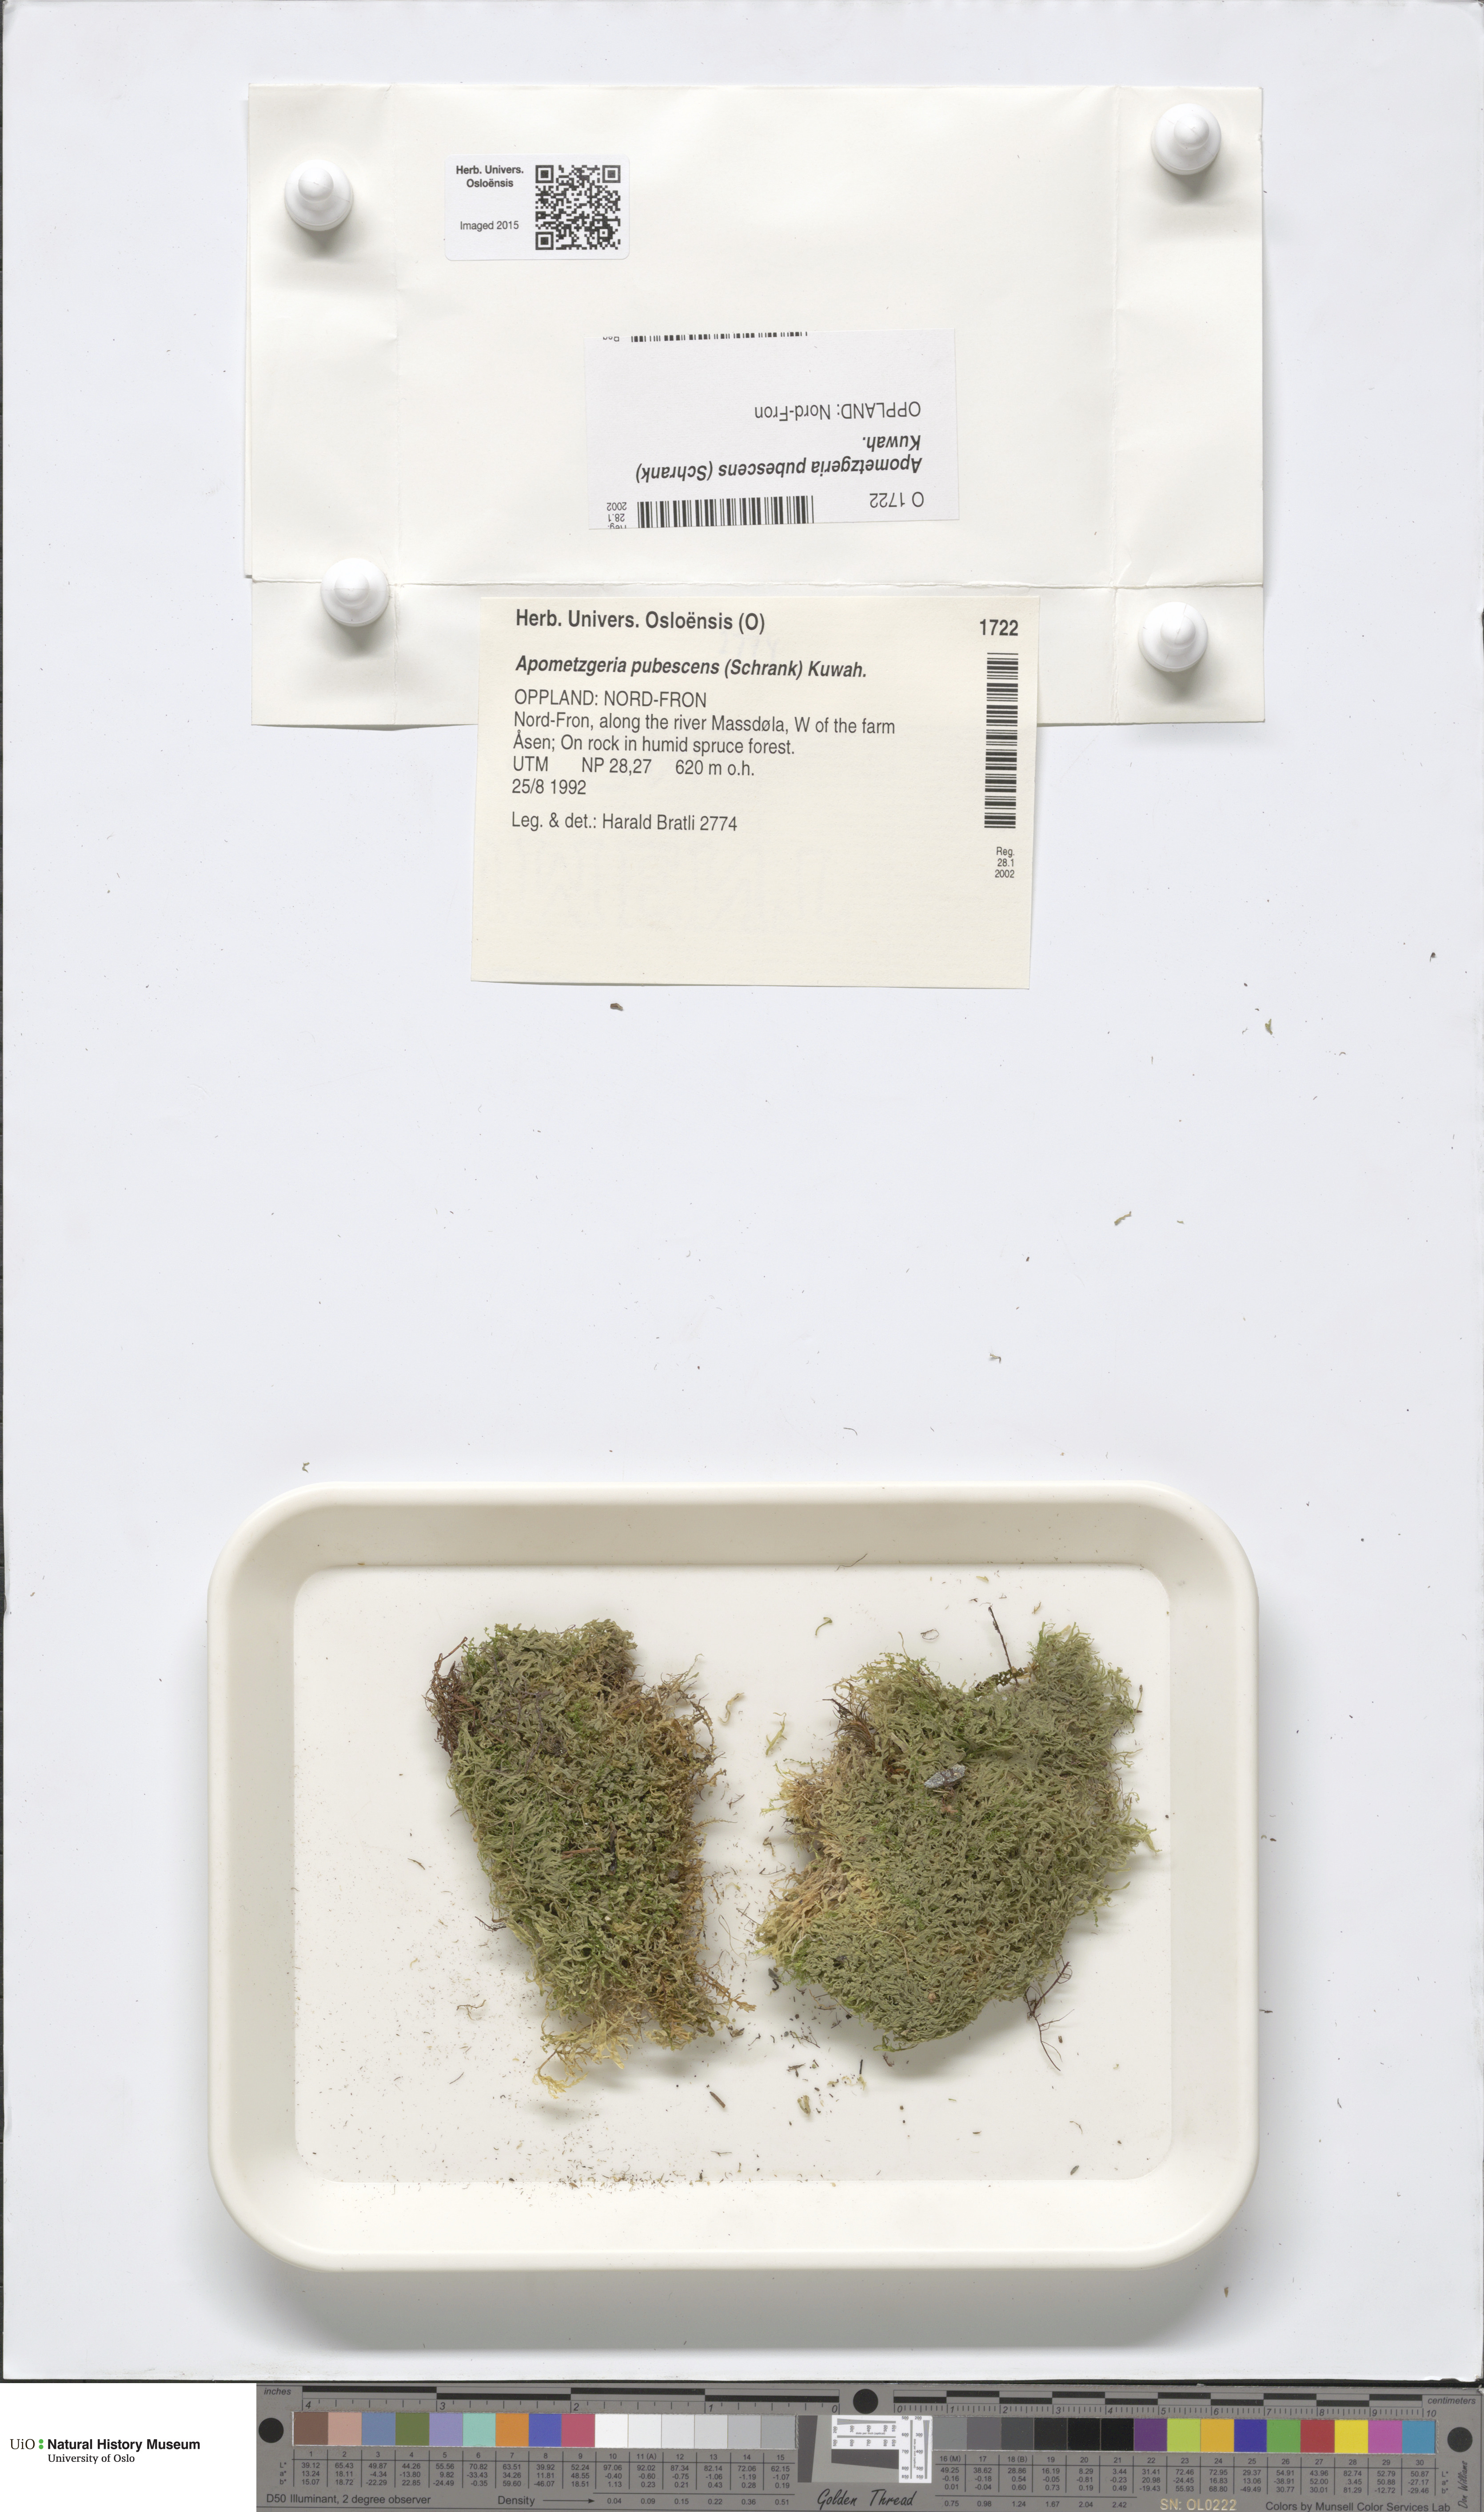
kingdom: Plantae
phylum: Marchantiophyta
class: Jungermanniopsida
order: Metzgeriales
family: Metzgeriaceae
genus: Metzgeria
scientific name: Metzgeria pubescens
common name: Downy veilwort
